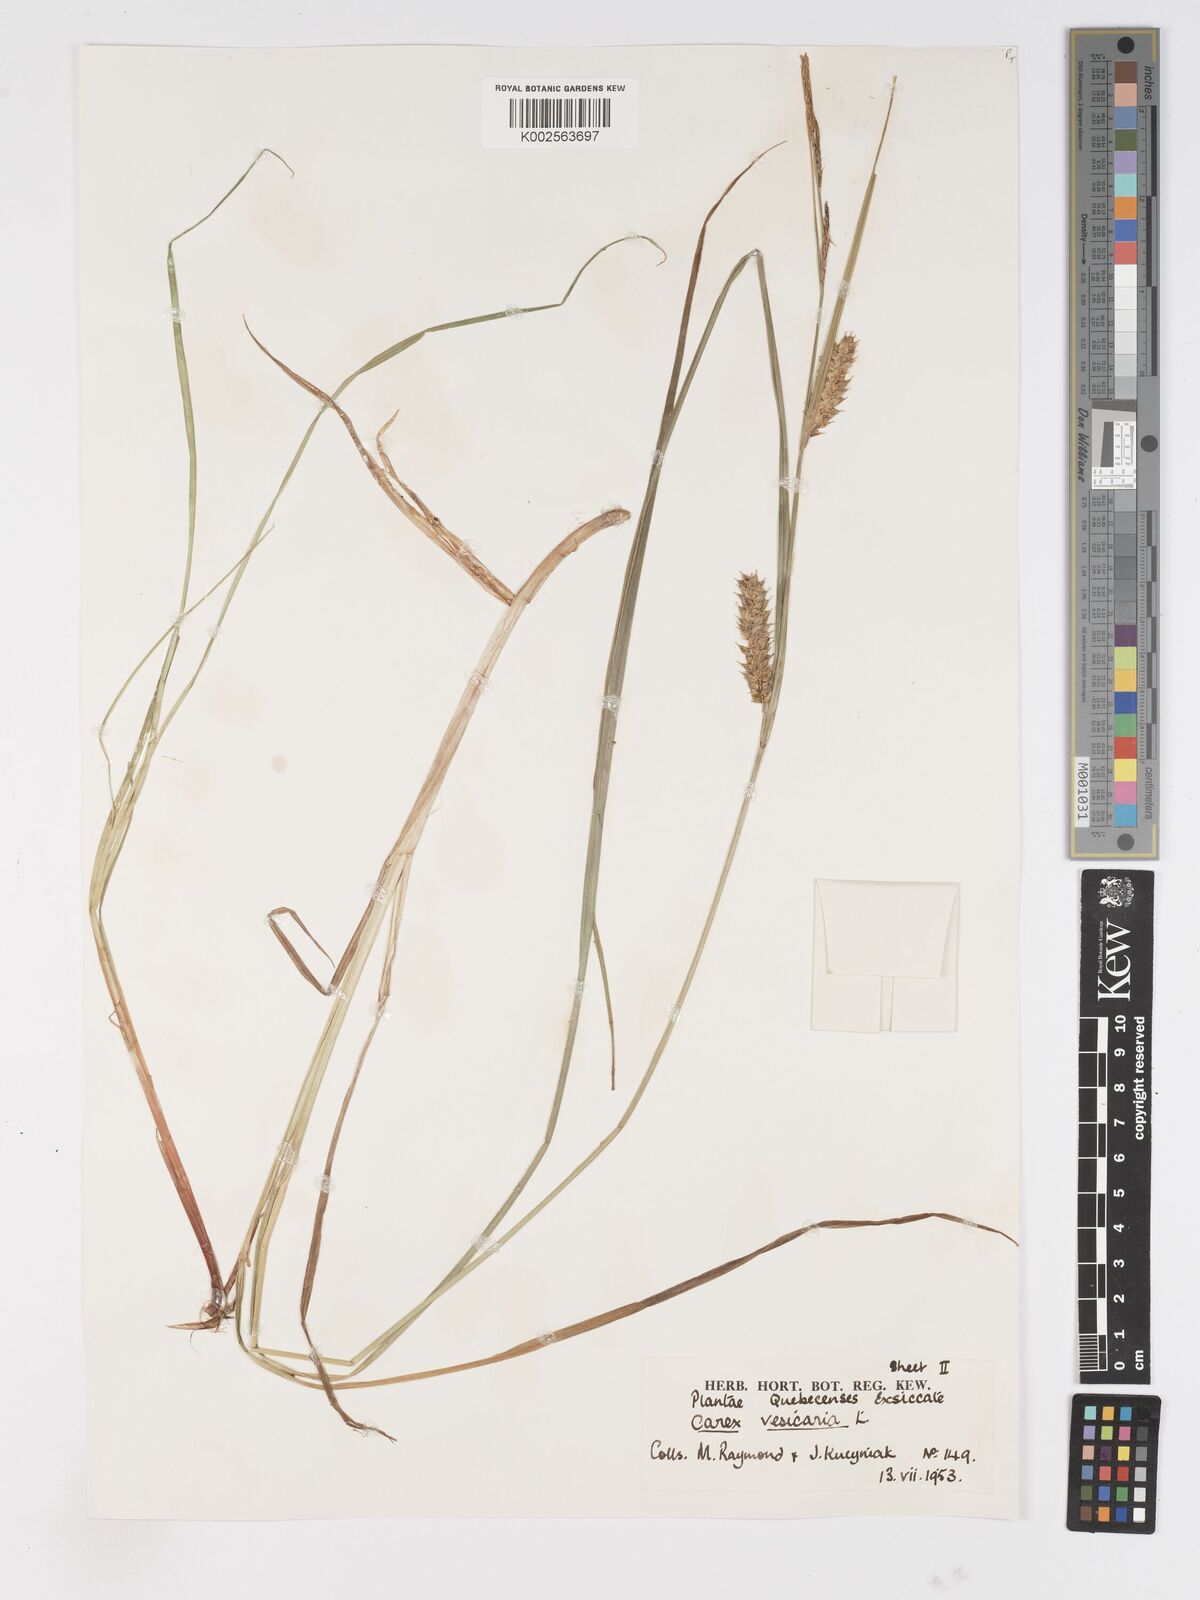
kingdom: Plantae
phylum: Tracheophyta
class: Liliopsida
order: Poales
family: Cyperaceae
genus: Carex
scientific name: Carex vesicaria
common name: Bladder-sedge
